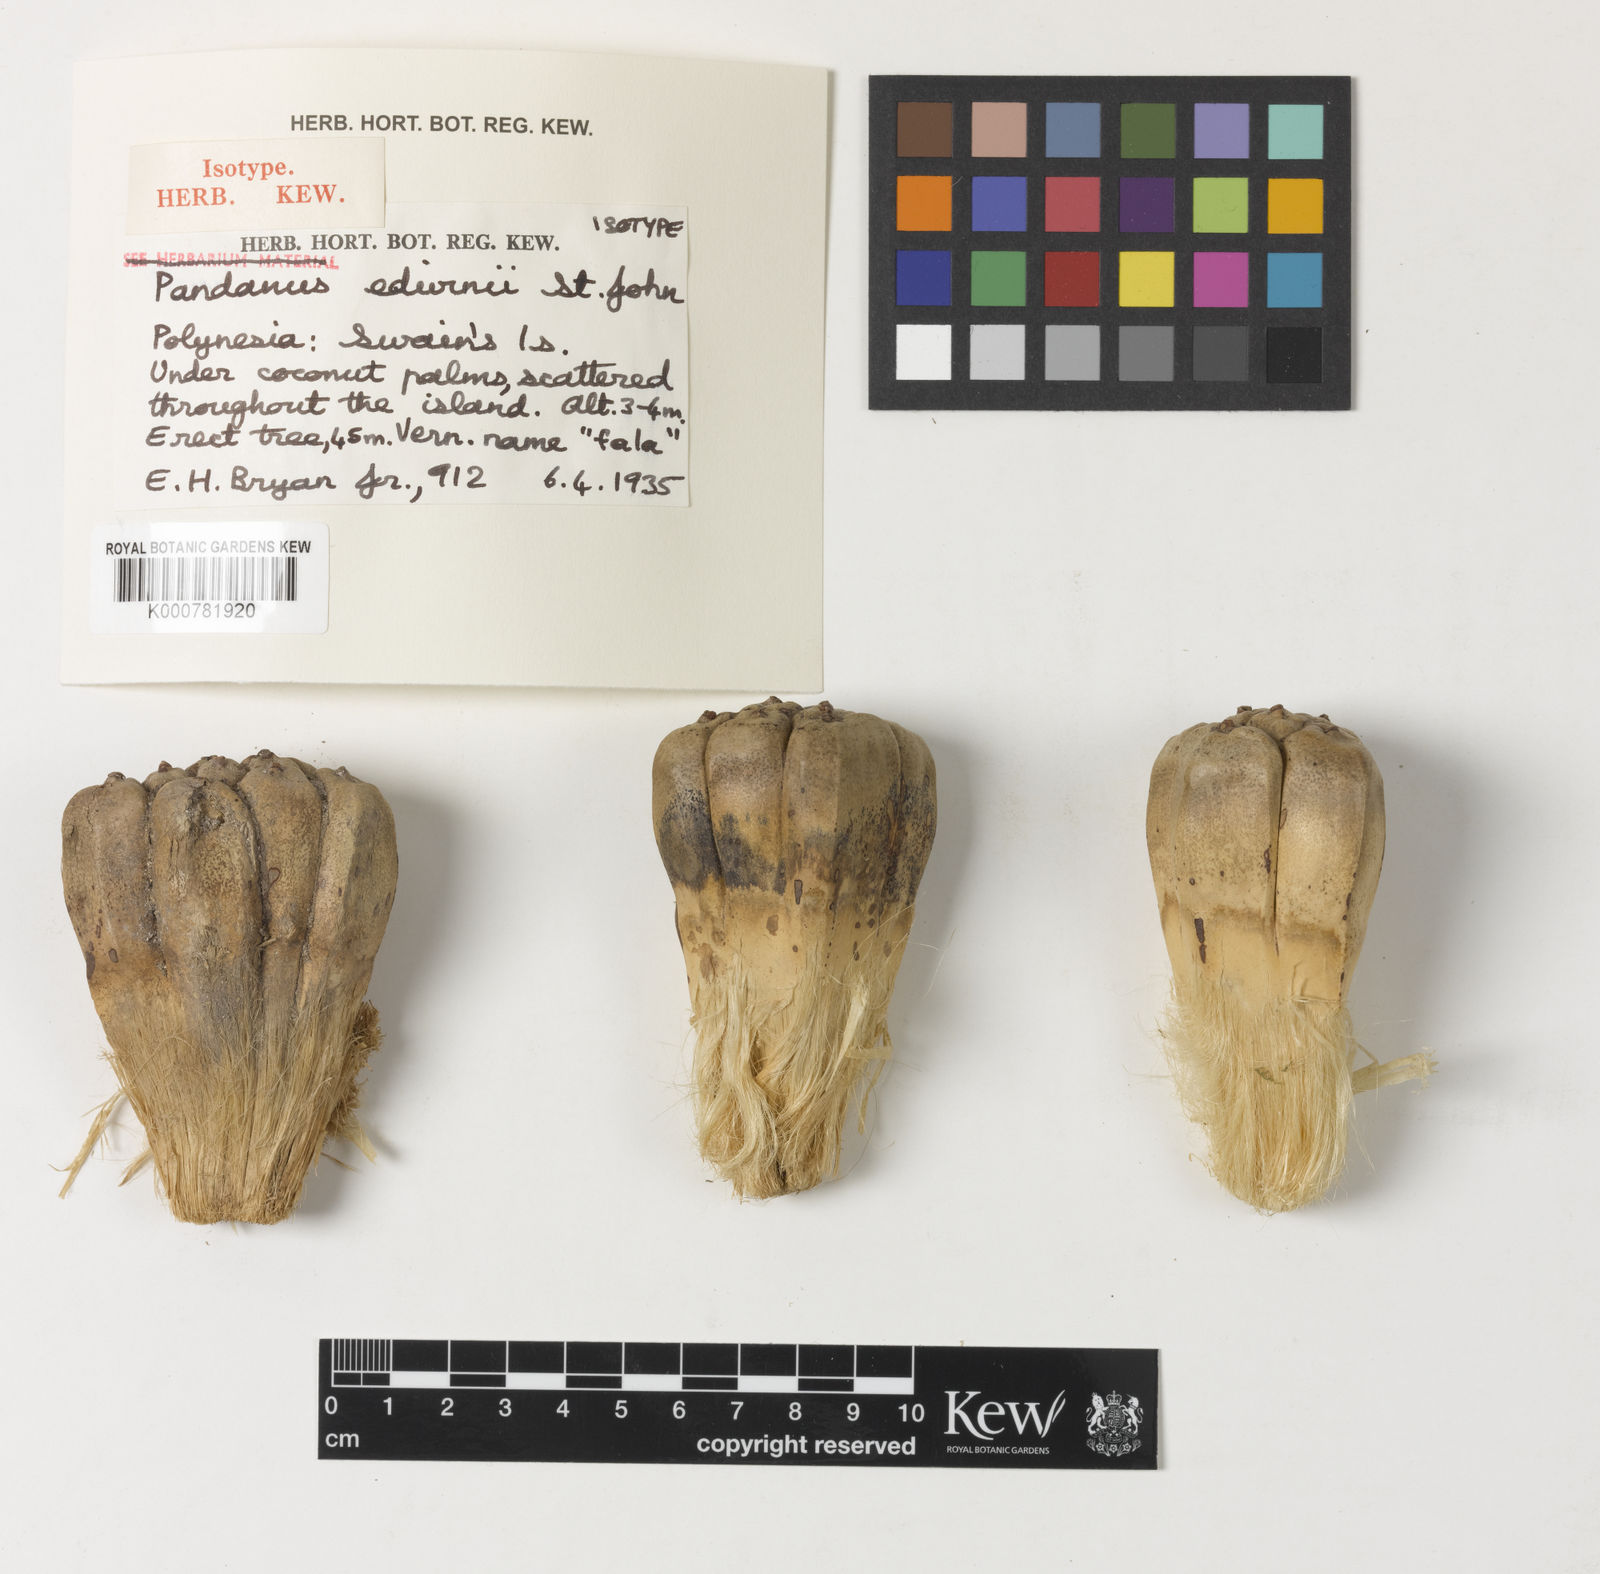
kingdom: Plantae
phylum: Tracheophyta
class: Liliopsida
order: Pandanales
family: Pandanaceae
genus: Pandanus
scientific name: Pandanus tectorius
